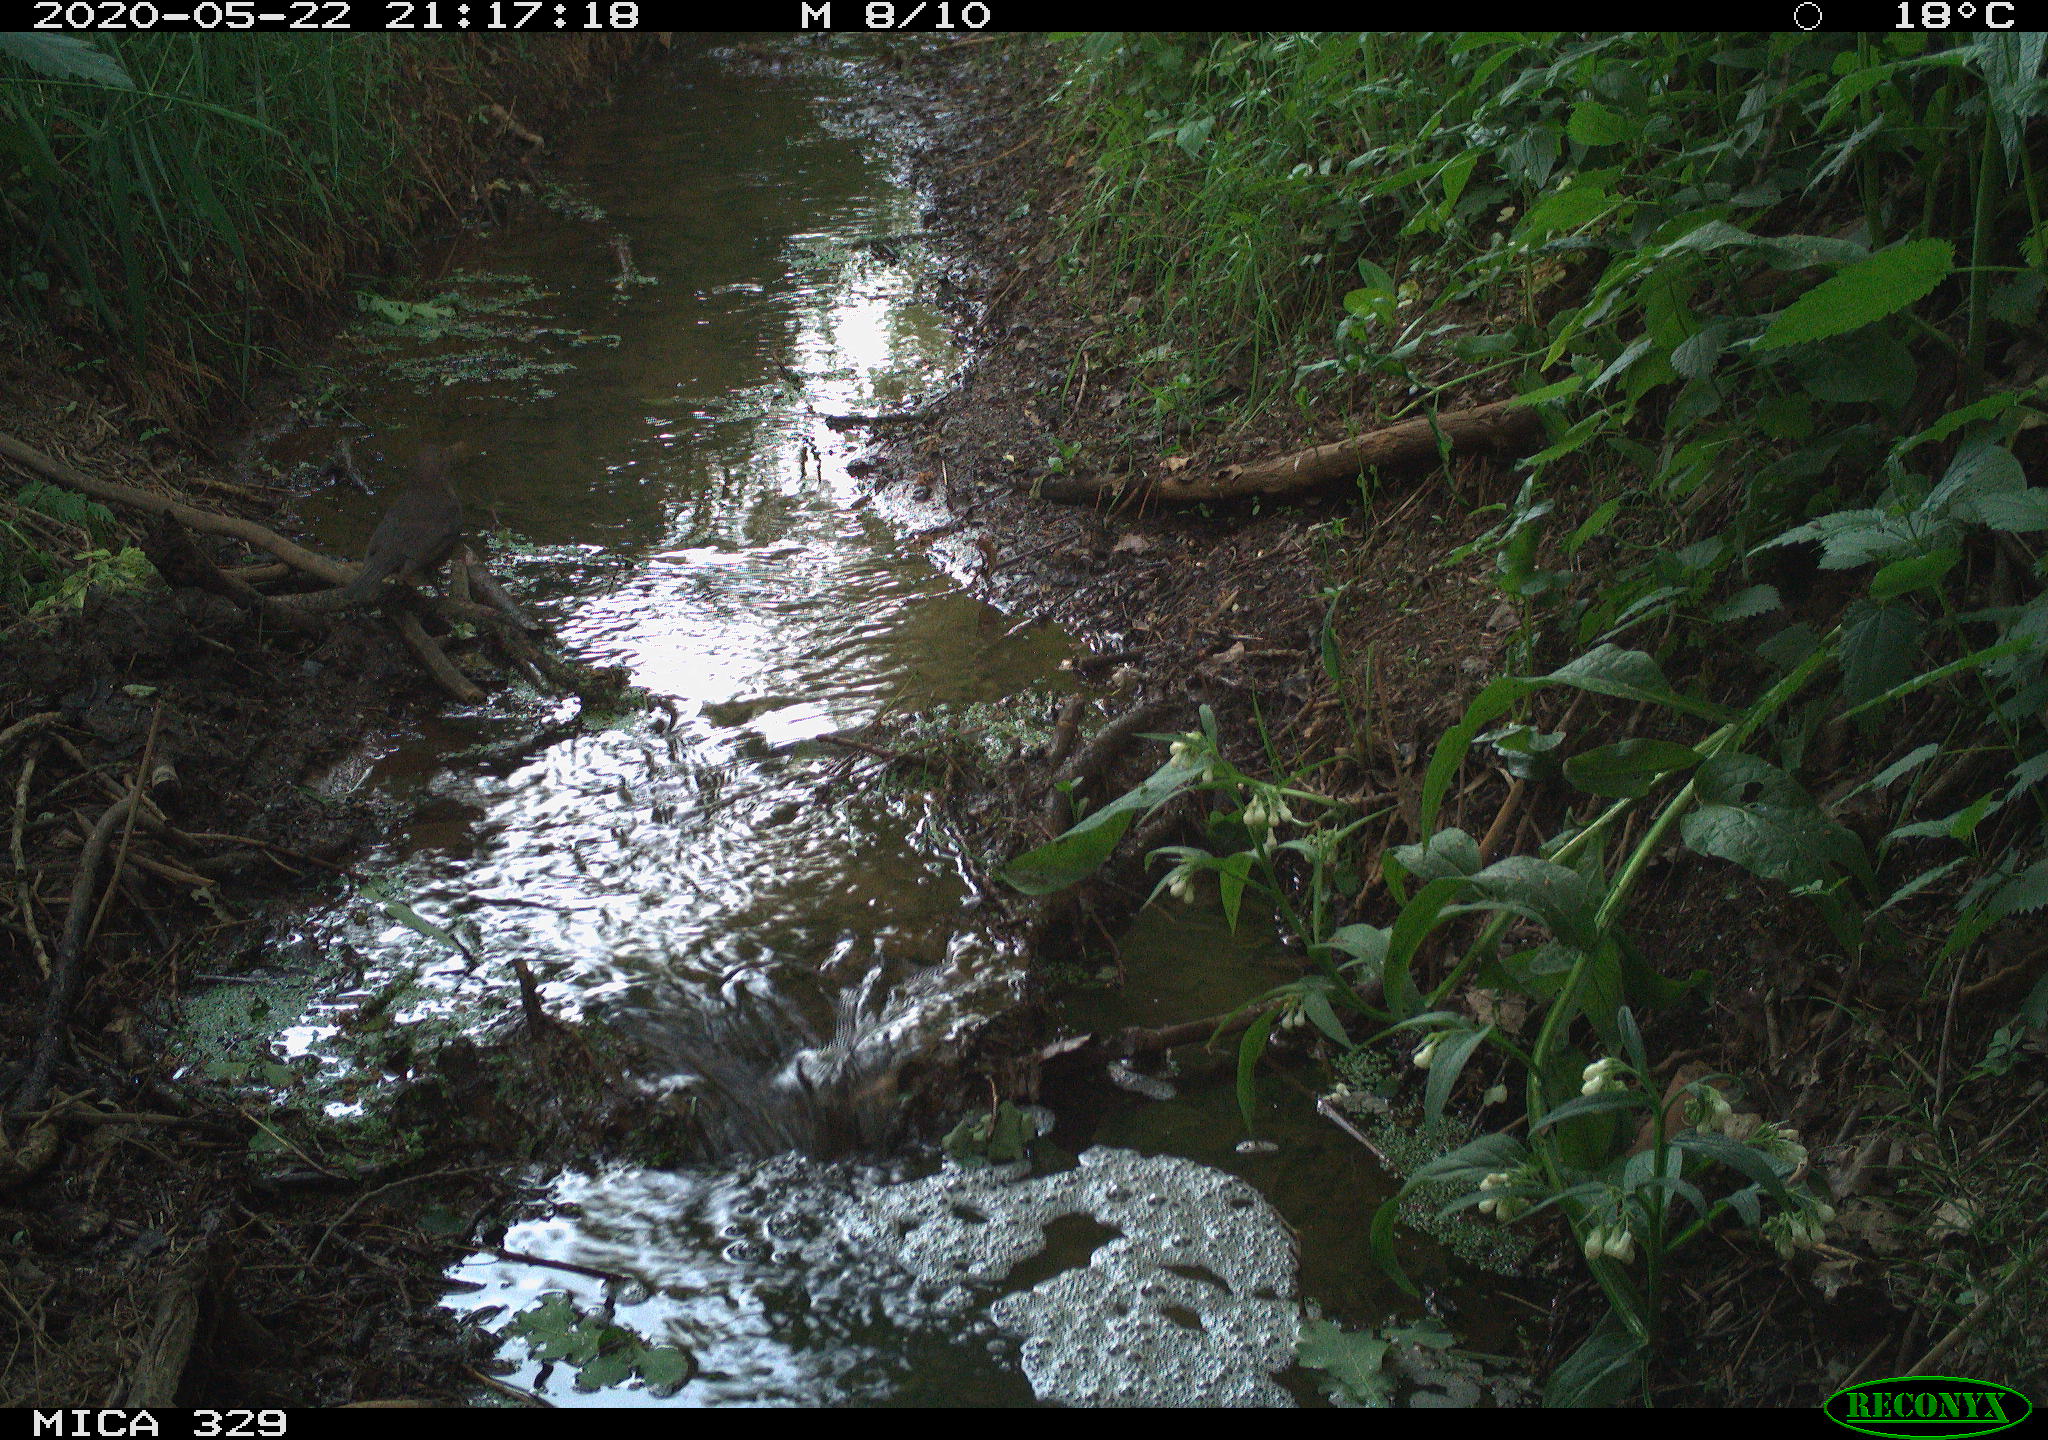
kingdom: Animalia
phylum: Chordata
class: Aves
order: Passeriformes
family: Turdidae
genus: Turdus
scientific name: Turdus merula
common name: Common blackbird
